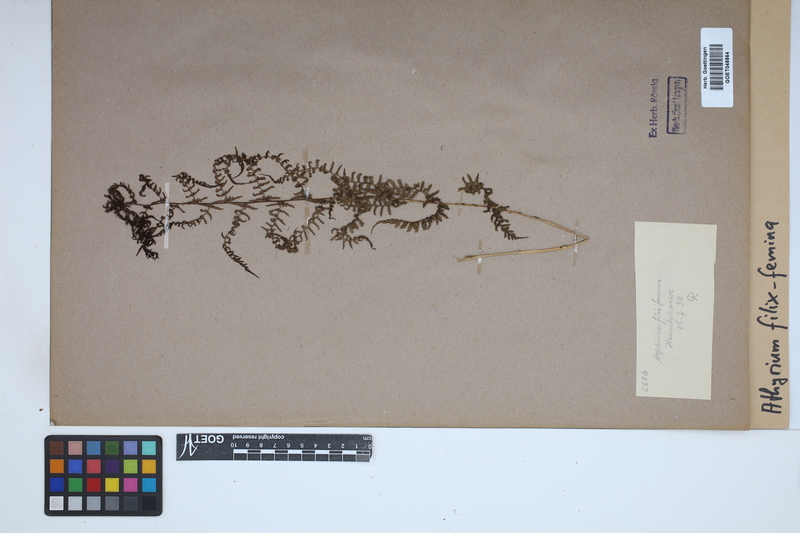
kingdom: Plantae
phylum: Tracheophyta
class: Polypodiopsida
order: Polypodiales
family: Athyriaceae
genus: Athyrium
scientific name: Athyrium filix-femina
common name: Lady fern
